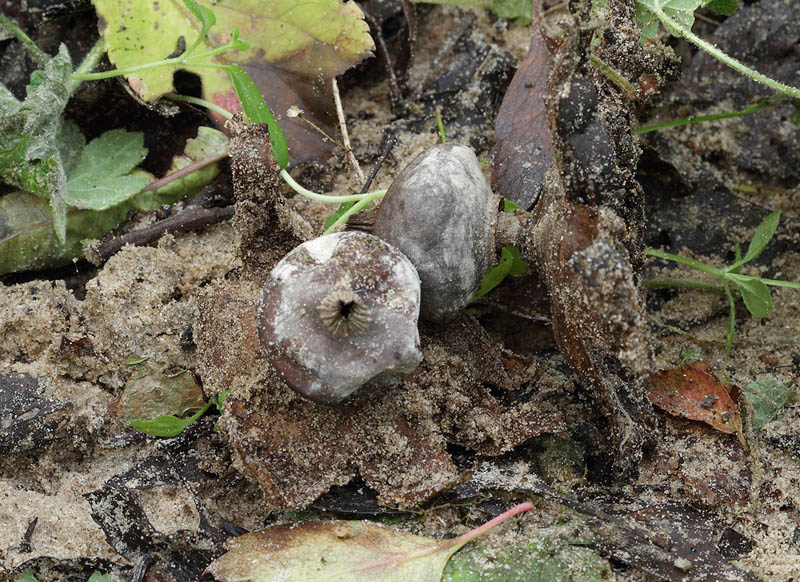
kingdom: Fungi
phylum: Basidiomycota
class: Agaricomycetes
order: Geastrales
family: Geastraceae
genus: Geastrum
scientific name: Geastrum striatum
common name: krave-stjernebold
